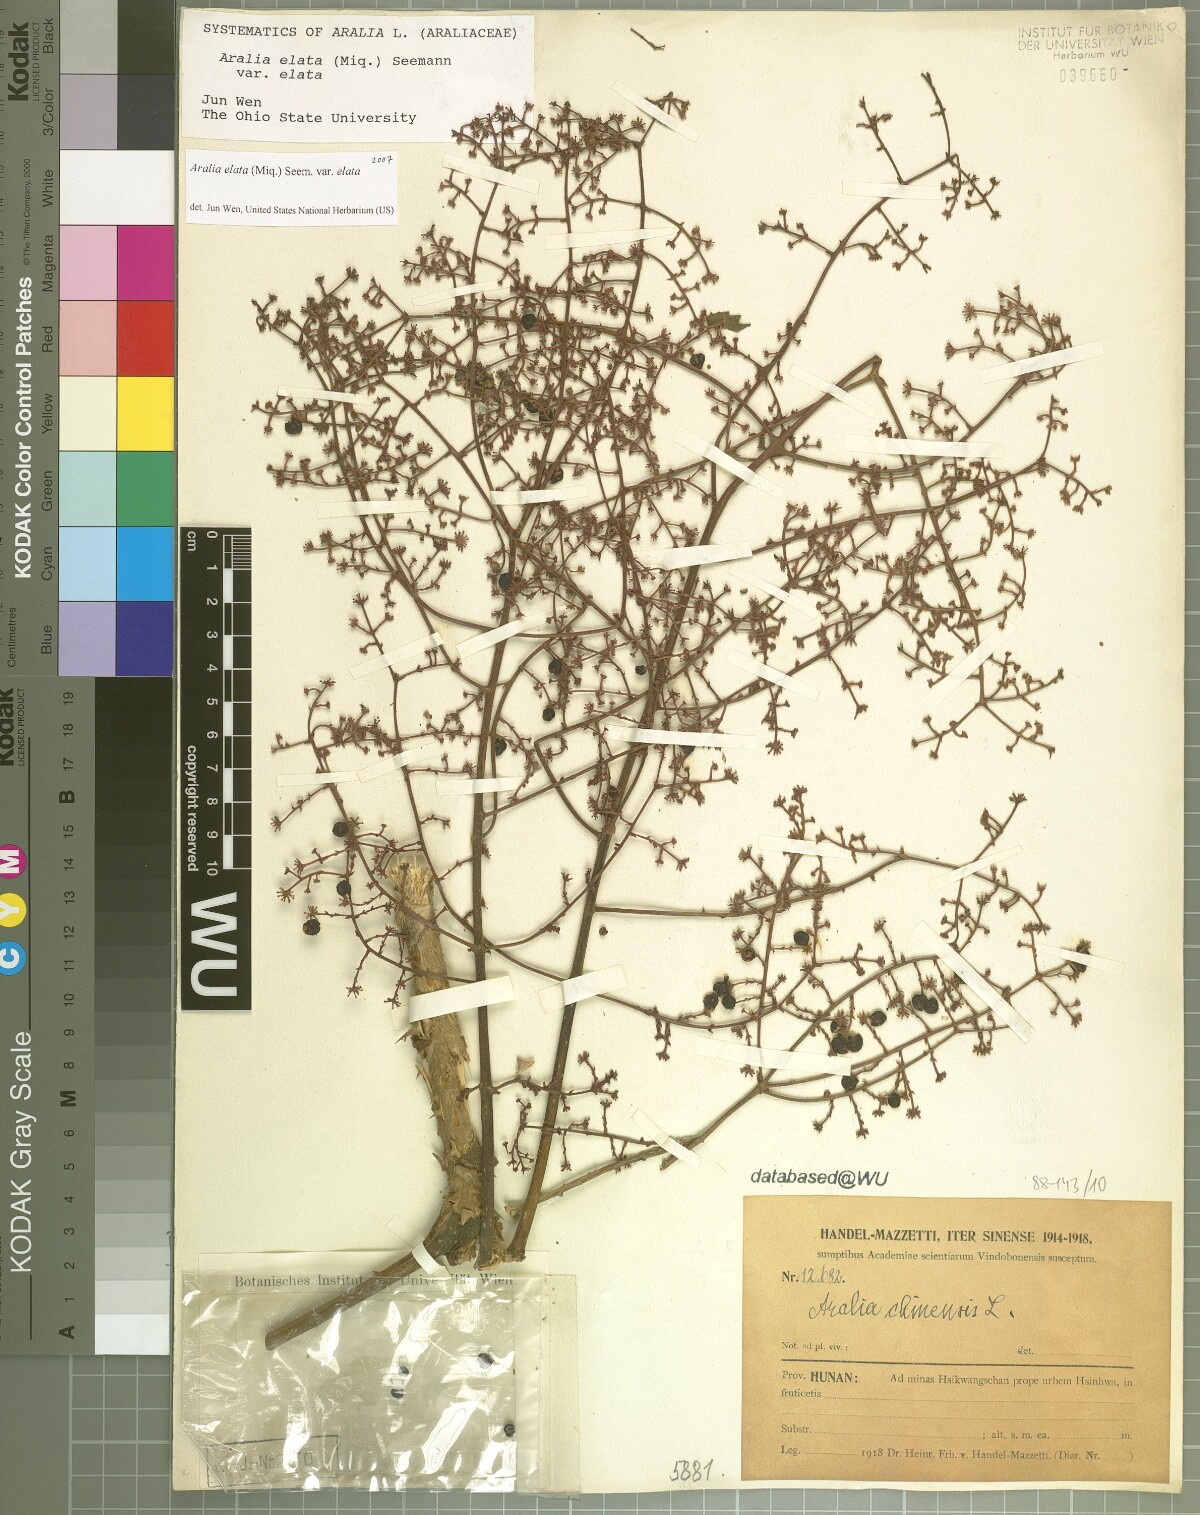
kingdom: Plantae
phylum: Tracheophyta
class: Magnoliopsida
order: Apiales
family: Araliaceae
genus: Aralia
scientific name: Aralia elata
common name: Japanese angelica-tree
